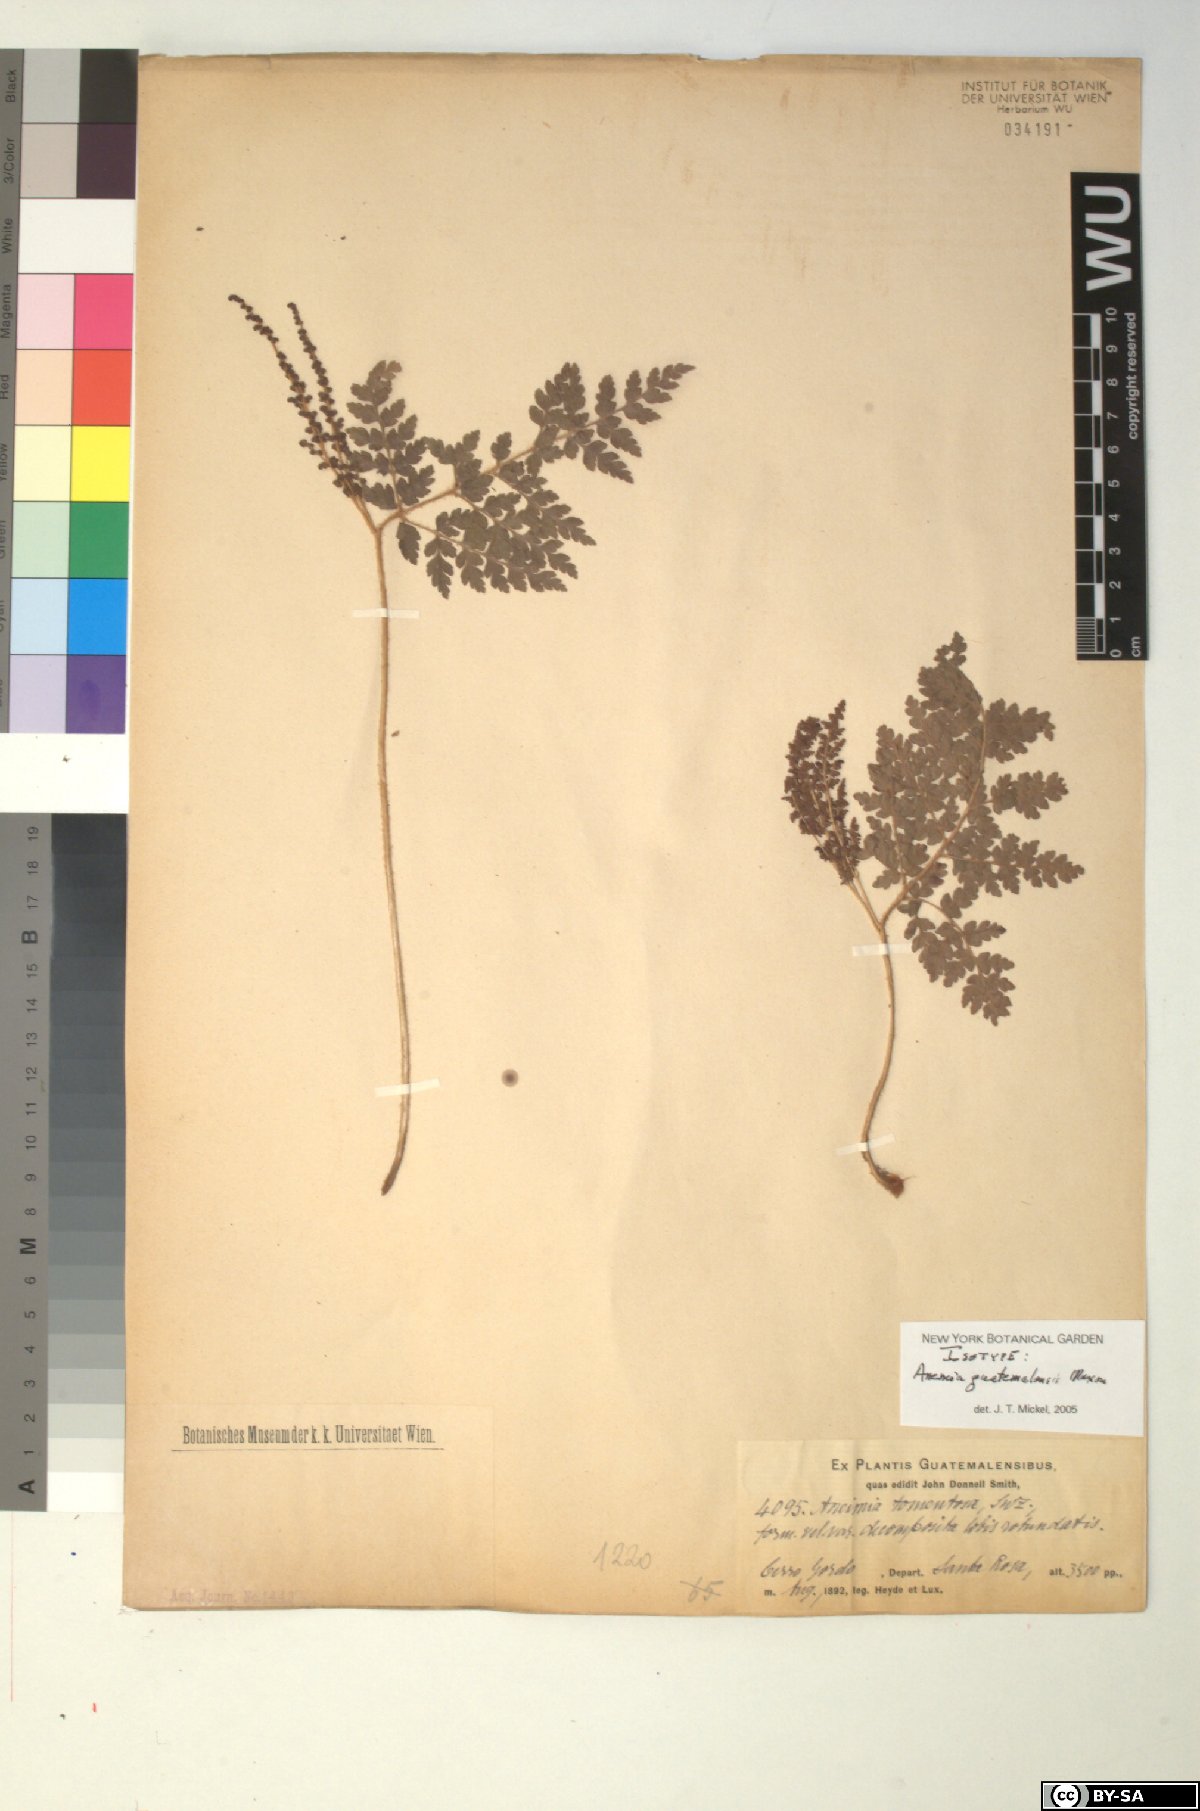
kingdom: Plantae
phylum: Tracheophyta
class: Polypodiopsida
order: Schizaeales
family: Anemiaceae
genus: Anemia
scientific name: Anemia guatemalensis
